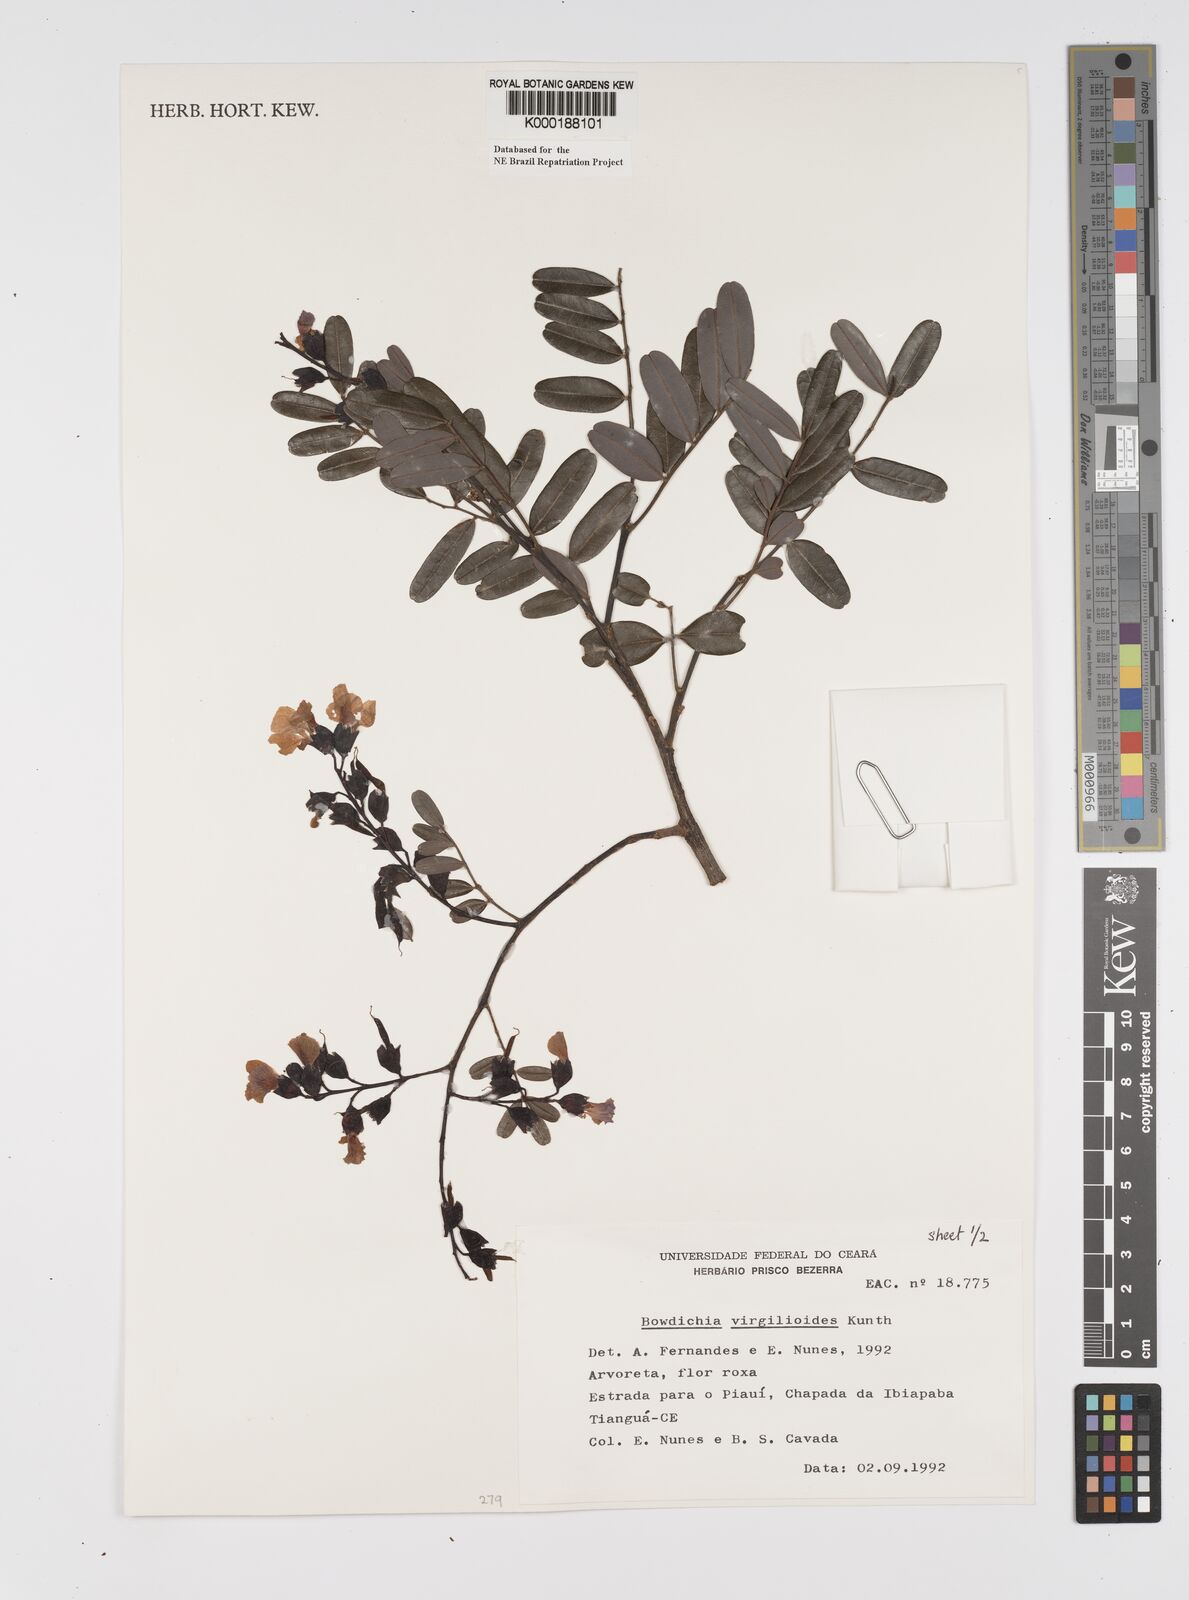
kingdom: Plantae
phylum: Tracheophyta
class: Magnoliopsida
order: Fabales
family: Fabaceae
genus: Bowdichia
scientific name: Bowdichia virgilioides
